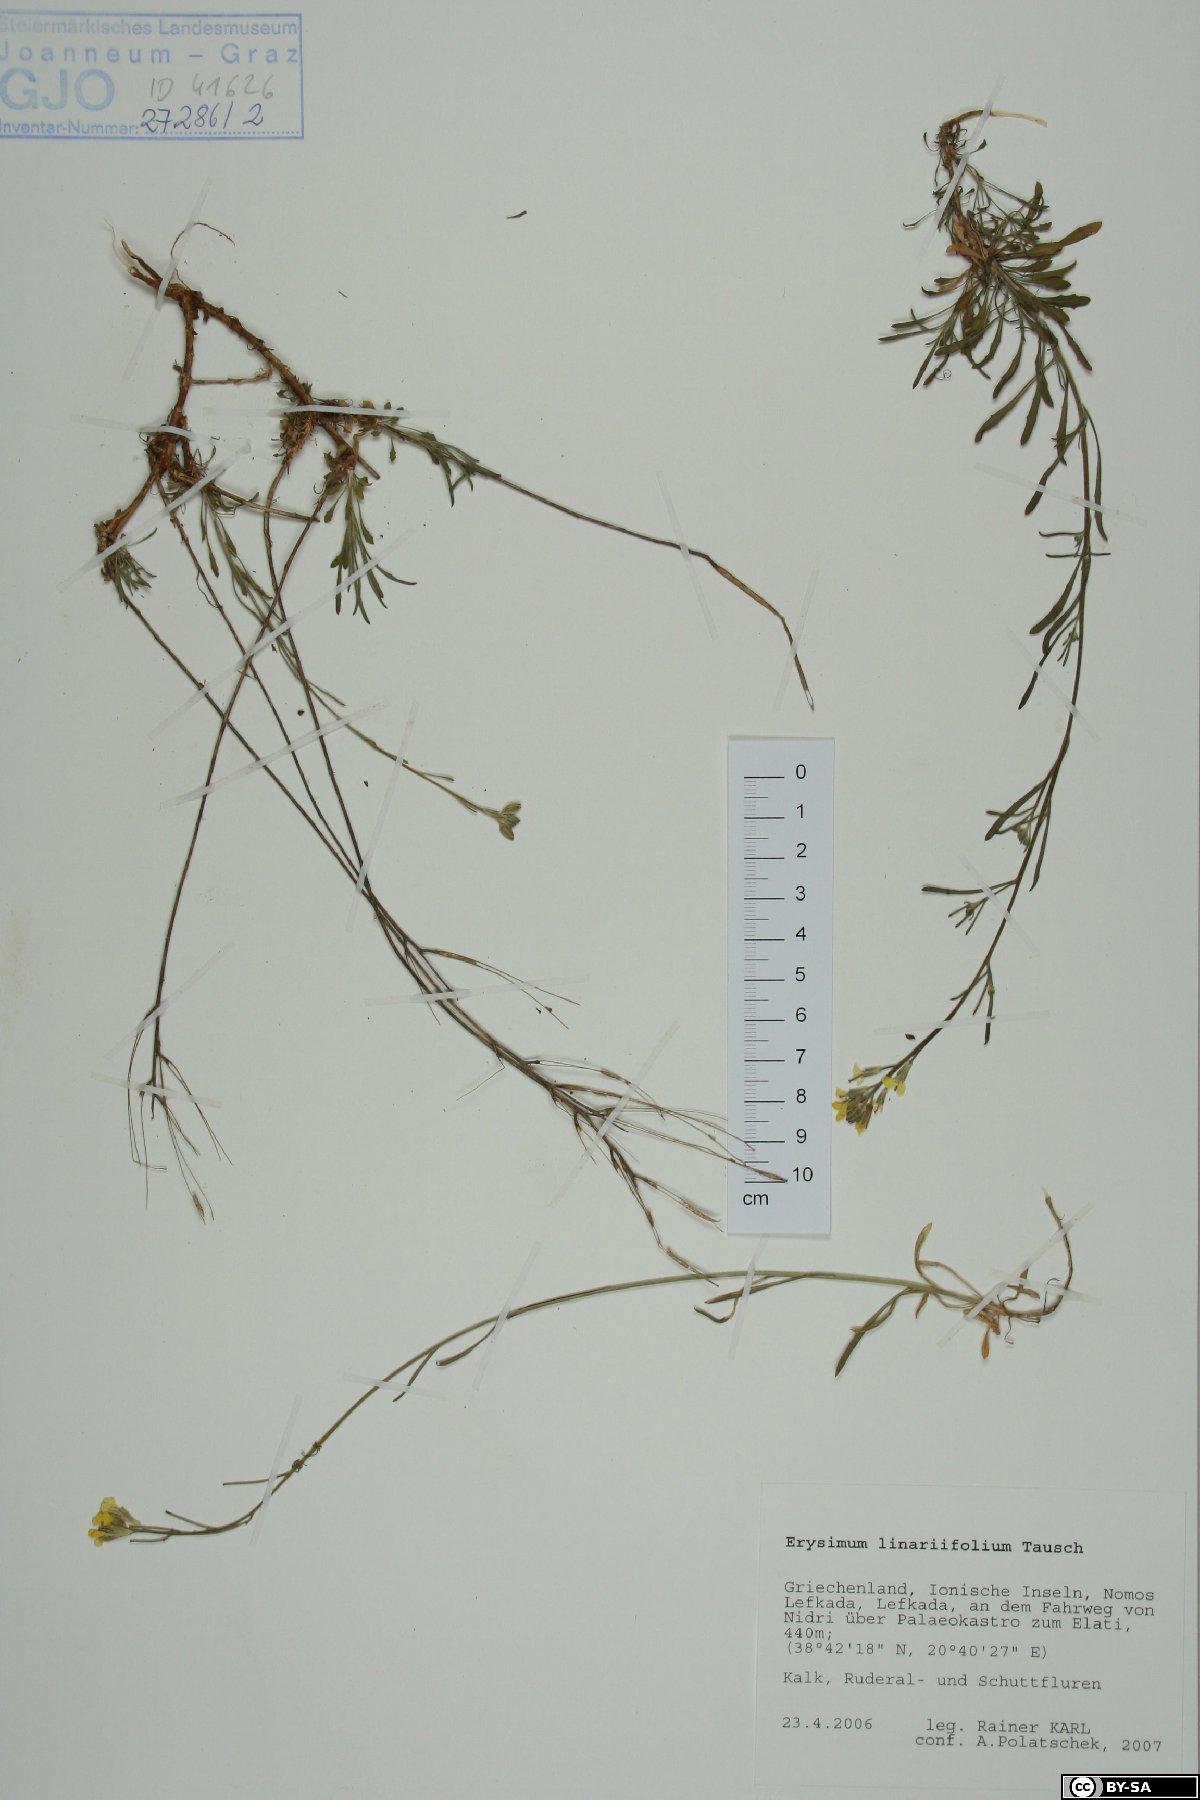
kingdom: Plantae
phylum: Tracheophyta
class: Magnoliopsida
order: Brassicales
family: Brassicaceae
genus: Erysimum
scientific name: Erysimum linariifolium
